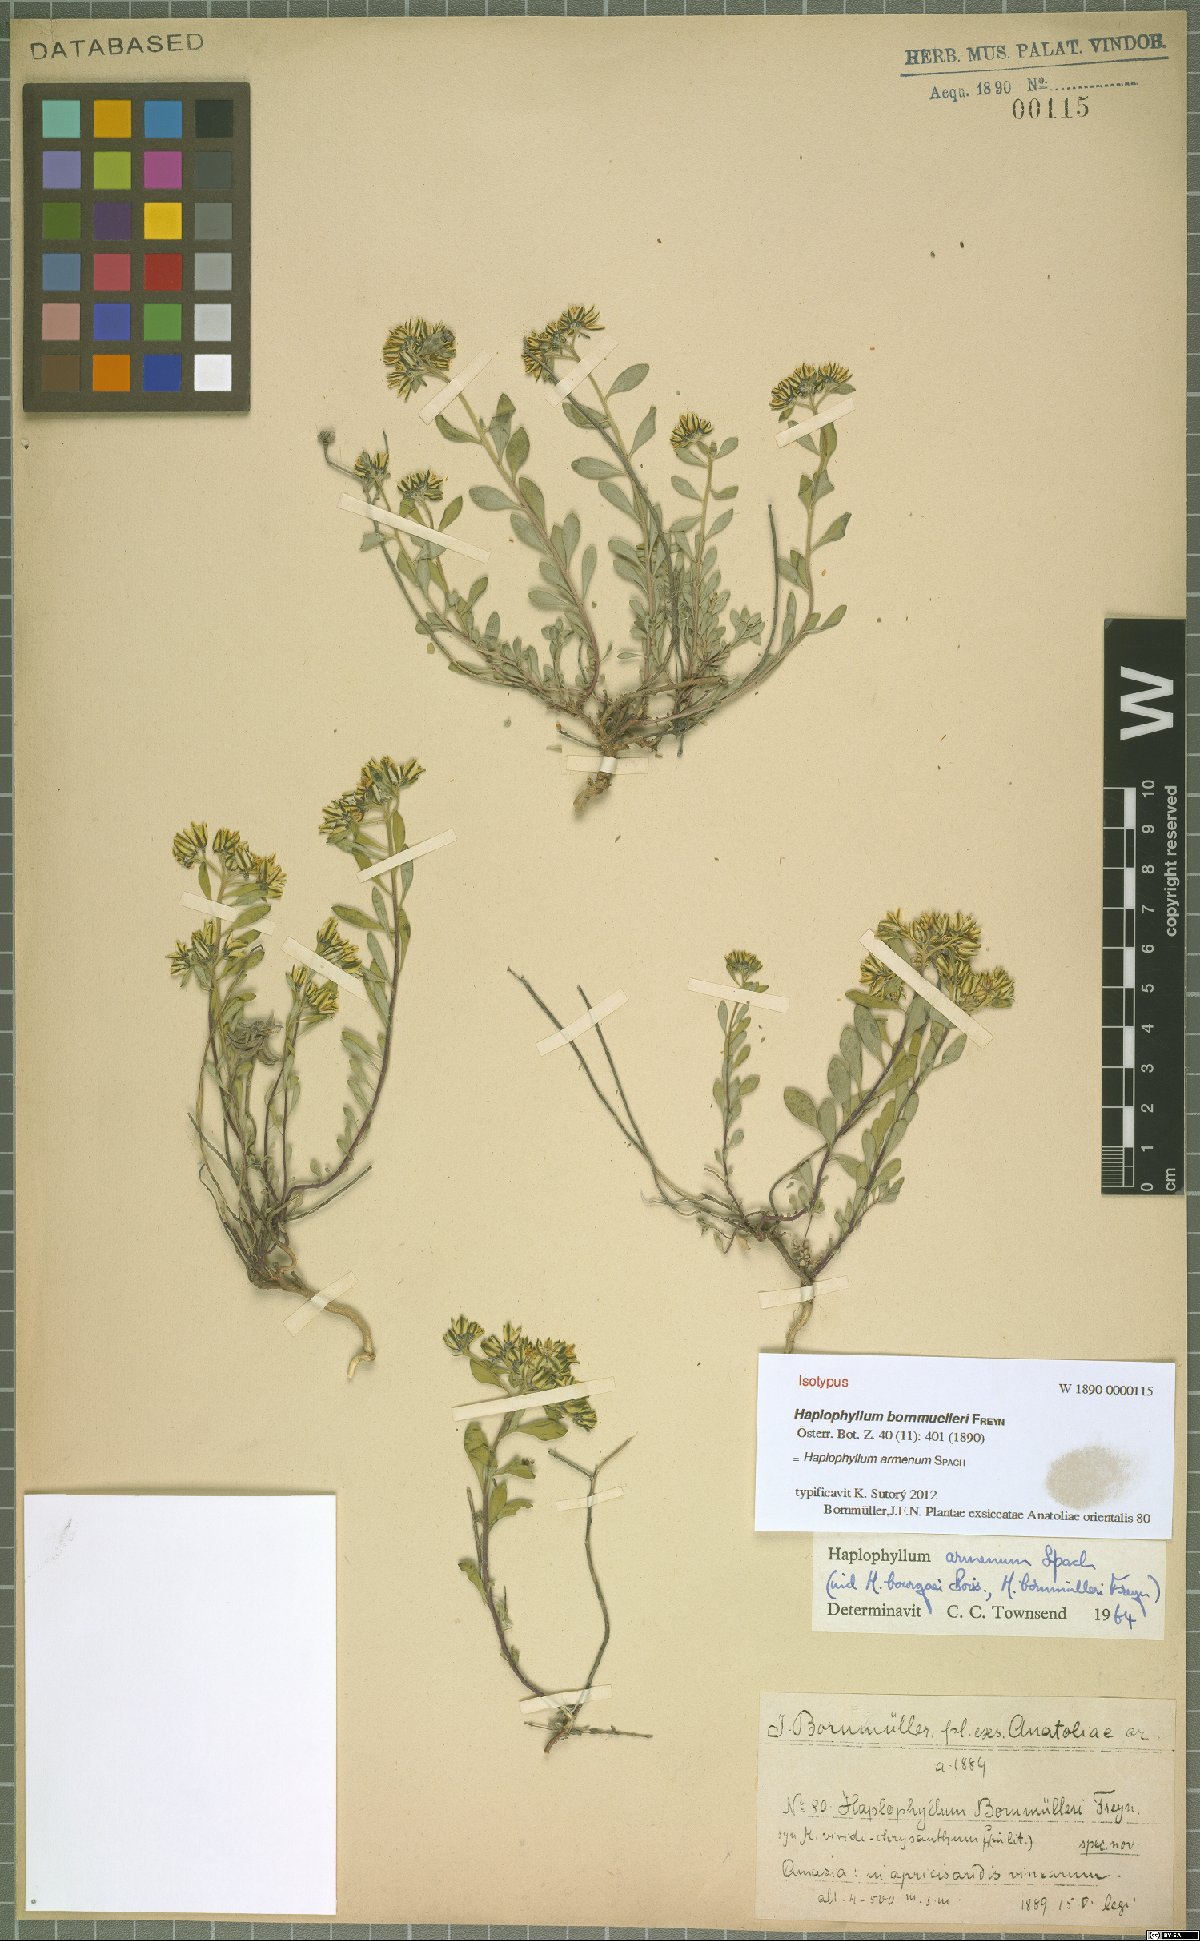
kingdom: Plantae
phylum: Tracheophyta
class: Magnoliopsida
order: Sapindales
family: Rutaceae
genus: Haplophyllum
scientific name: Haplophyllum armenum
